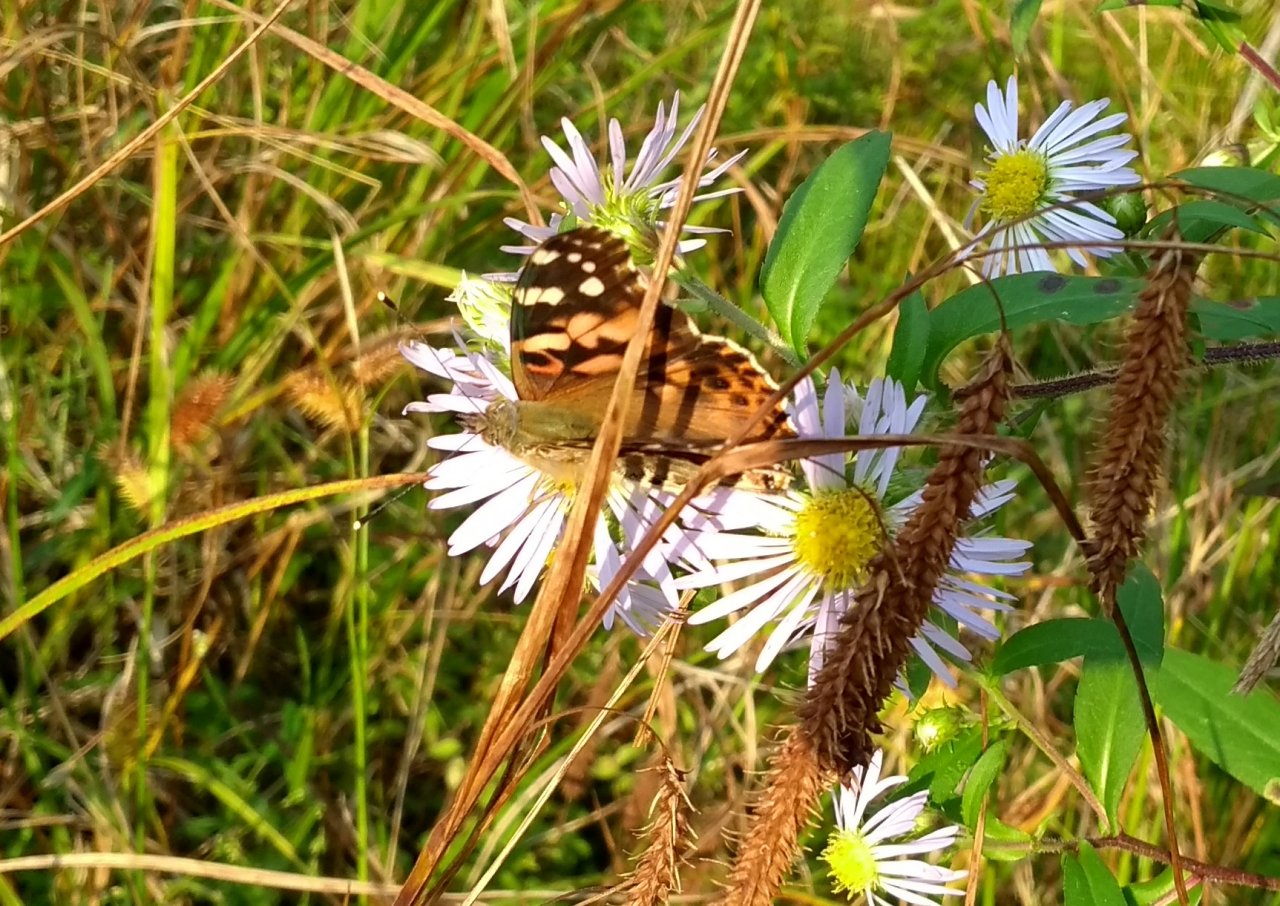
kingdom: Animalia
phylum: Arthropoda
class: Insecta
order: Lepidoptera
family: Nymphalidae
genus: Vanessa
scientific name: Vanessa cardui
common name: Painted Lady
